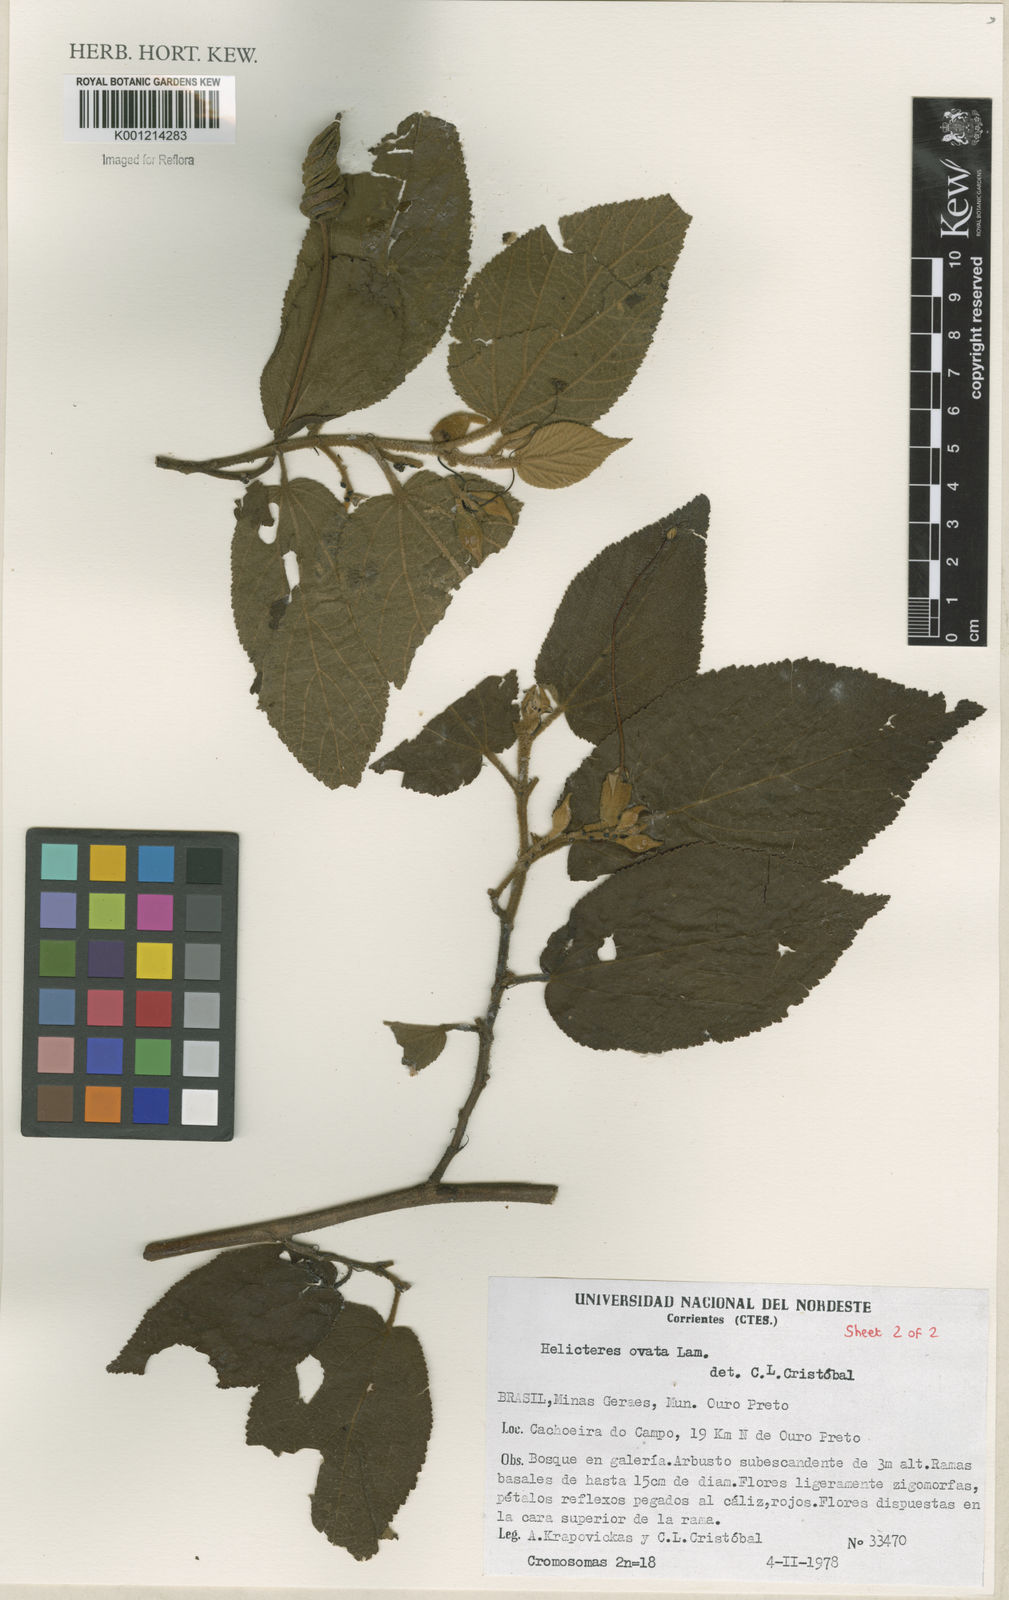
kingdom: Plantae
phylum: Tracheophyta
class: Magnoliopsida
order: Malvales
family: Malvaceae
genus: Helicteres
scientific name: Helicteres ovata
